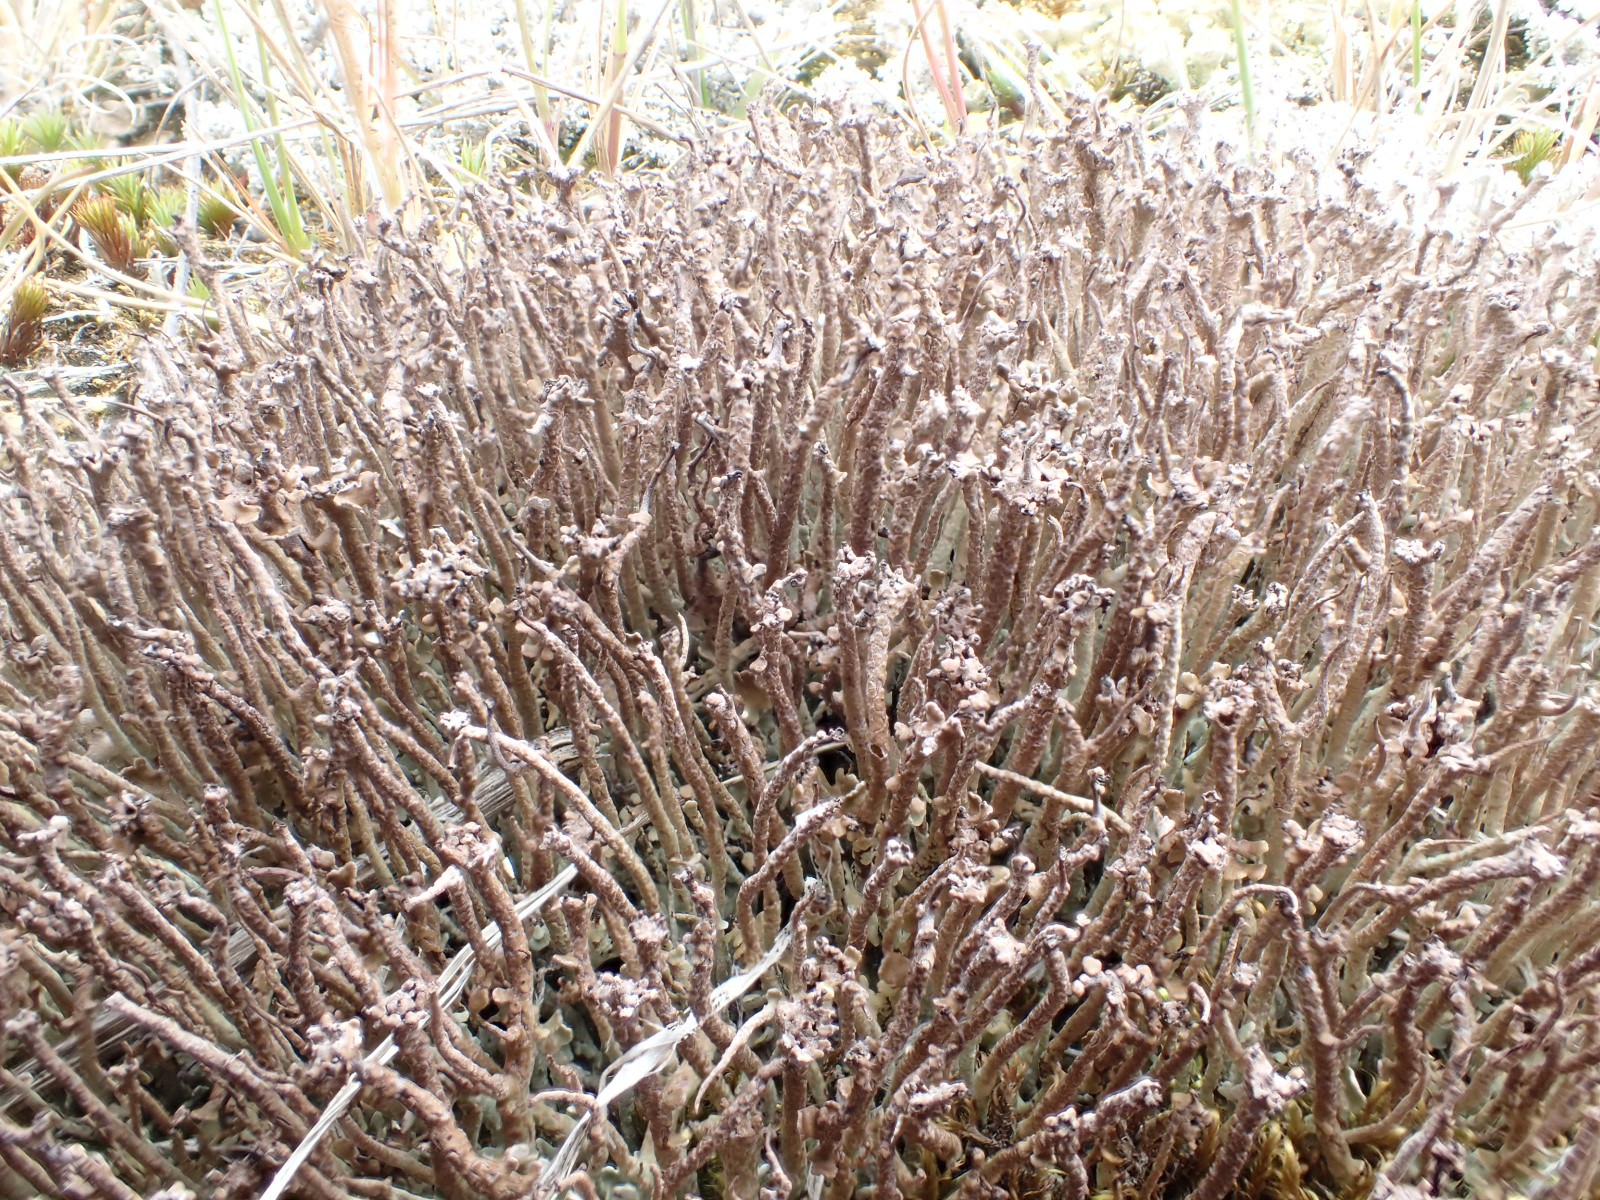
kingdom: Fungi
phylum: Ascomycota
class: Lecanoromycetes
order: Lecanorales
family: Cladoniaceae
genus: Cladonia
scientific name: Cladonia gracilis
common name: slank bægerlav
